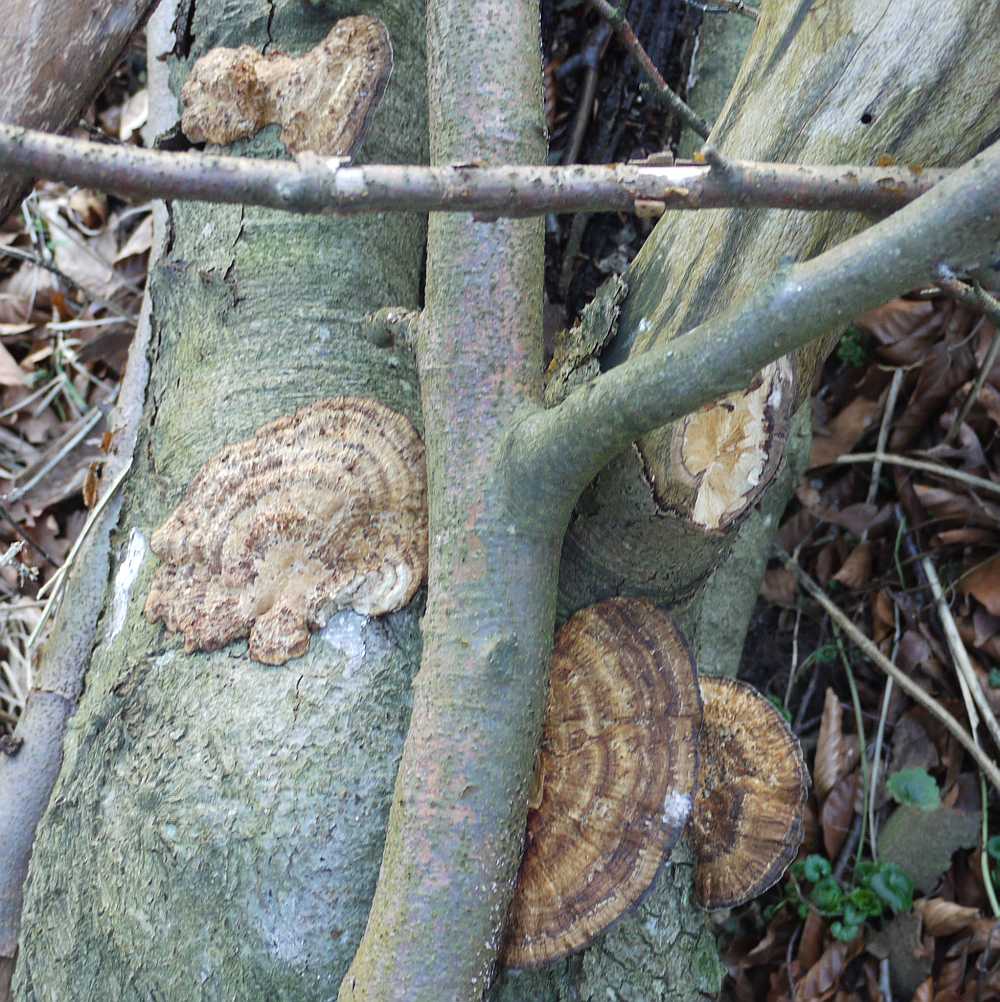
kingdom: Fungi
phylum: Basidiomycota
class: Agaricomycetes
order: Polyporales
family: Polyporaceae
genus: Daedaleopsis
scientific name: Daedaleopsis confragosa
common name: rødmende læderporesvamp
